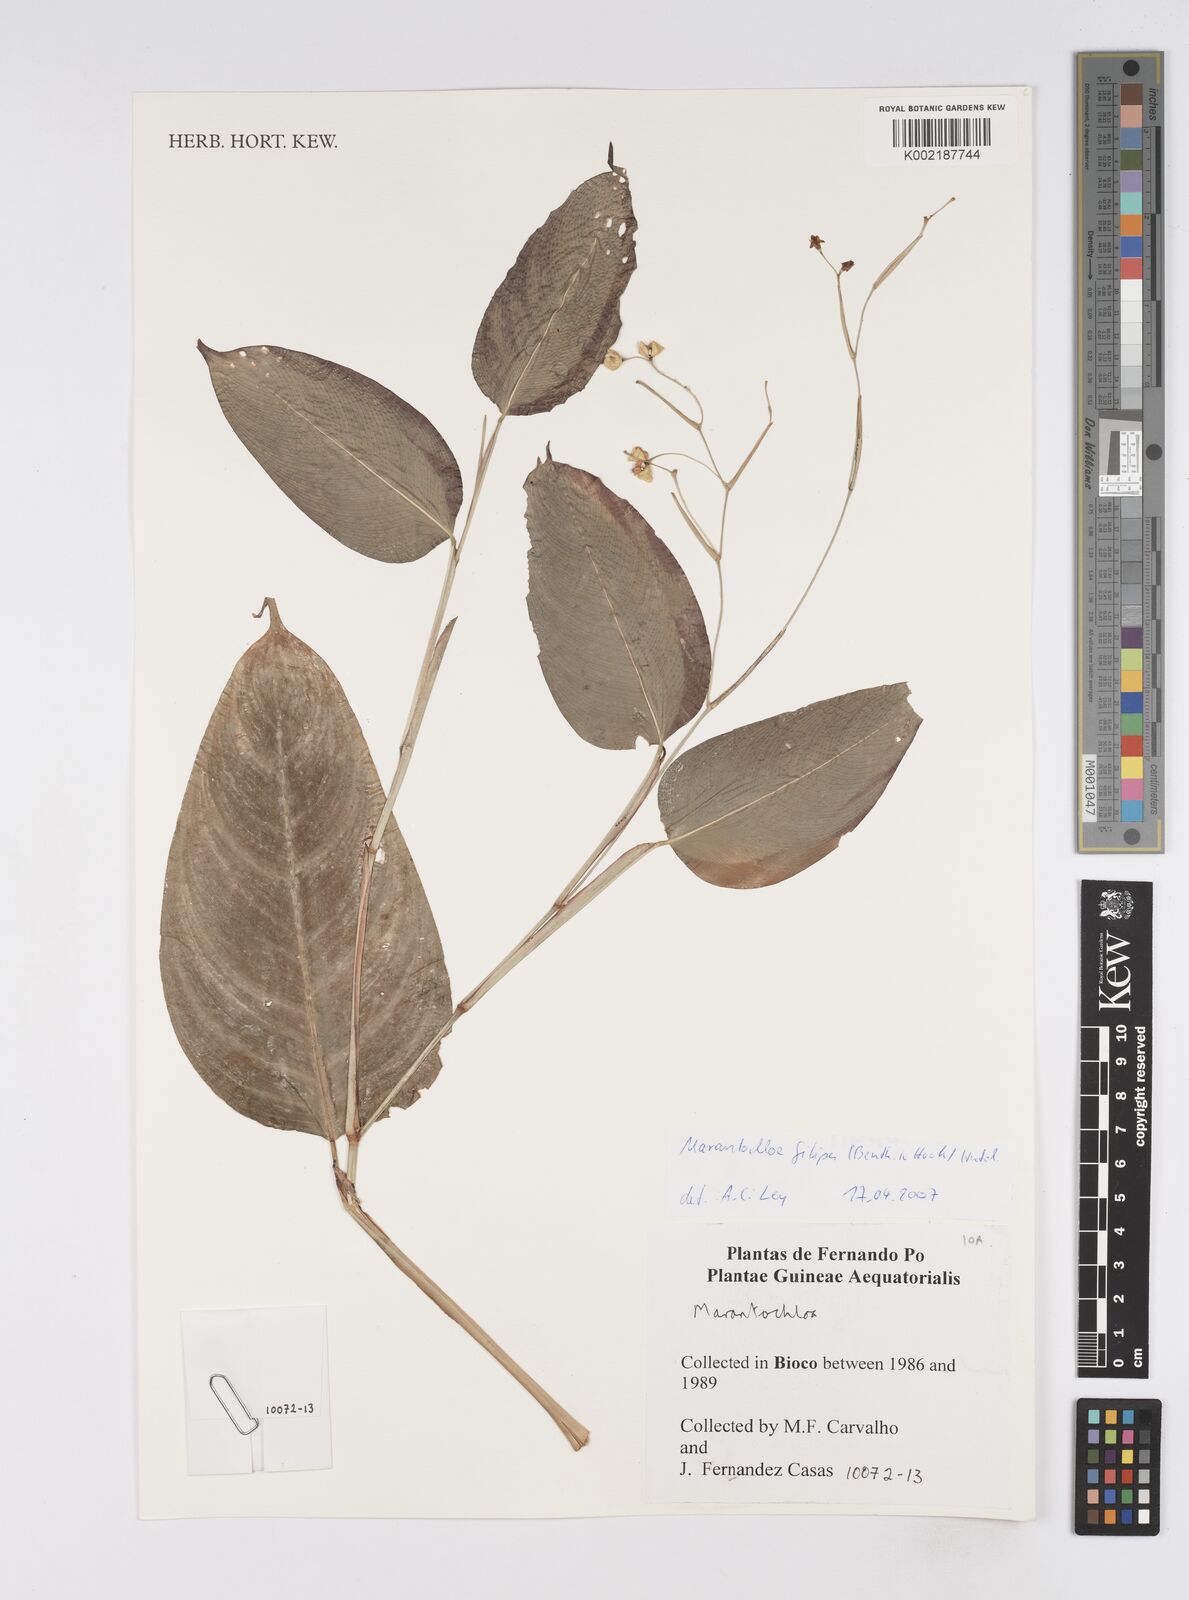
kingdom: Plantae
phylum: Tracheophyta
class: Liliopsida
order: Zingiberales
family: Marantaceae
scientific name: Marantaceae
